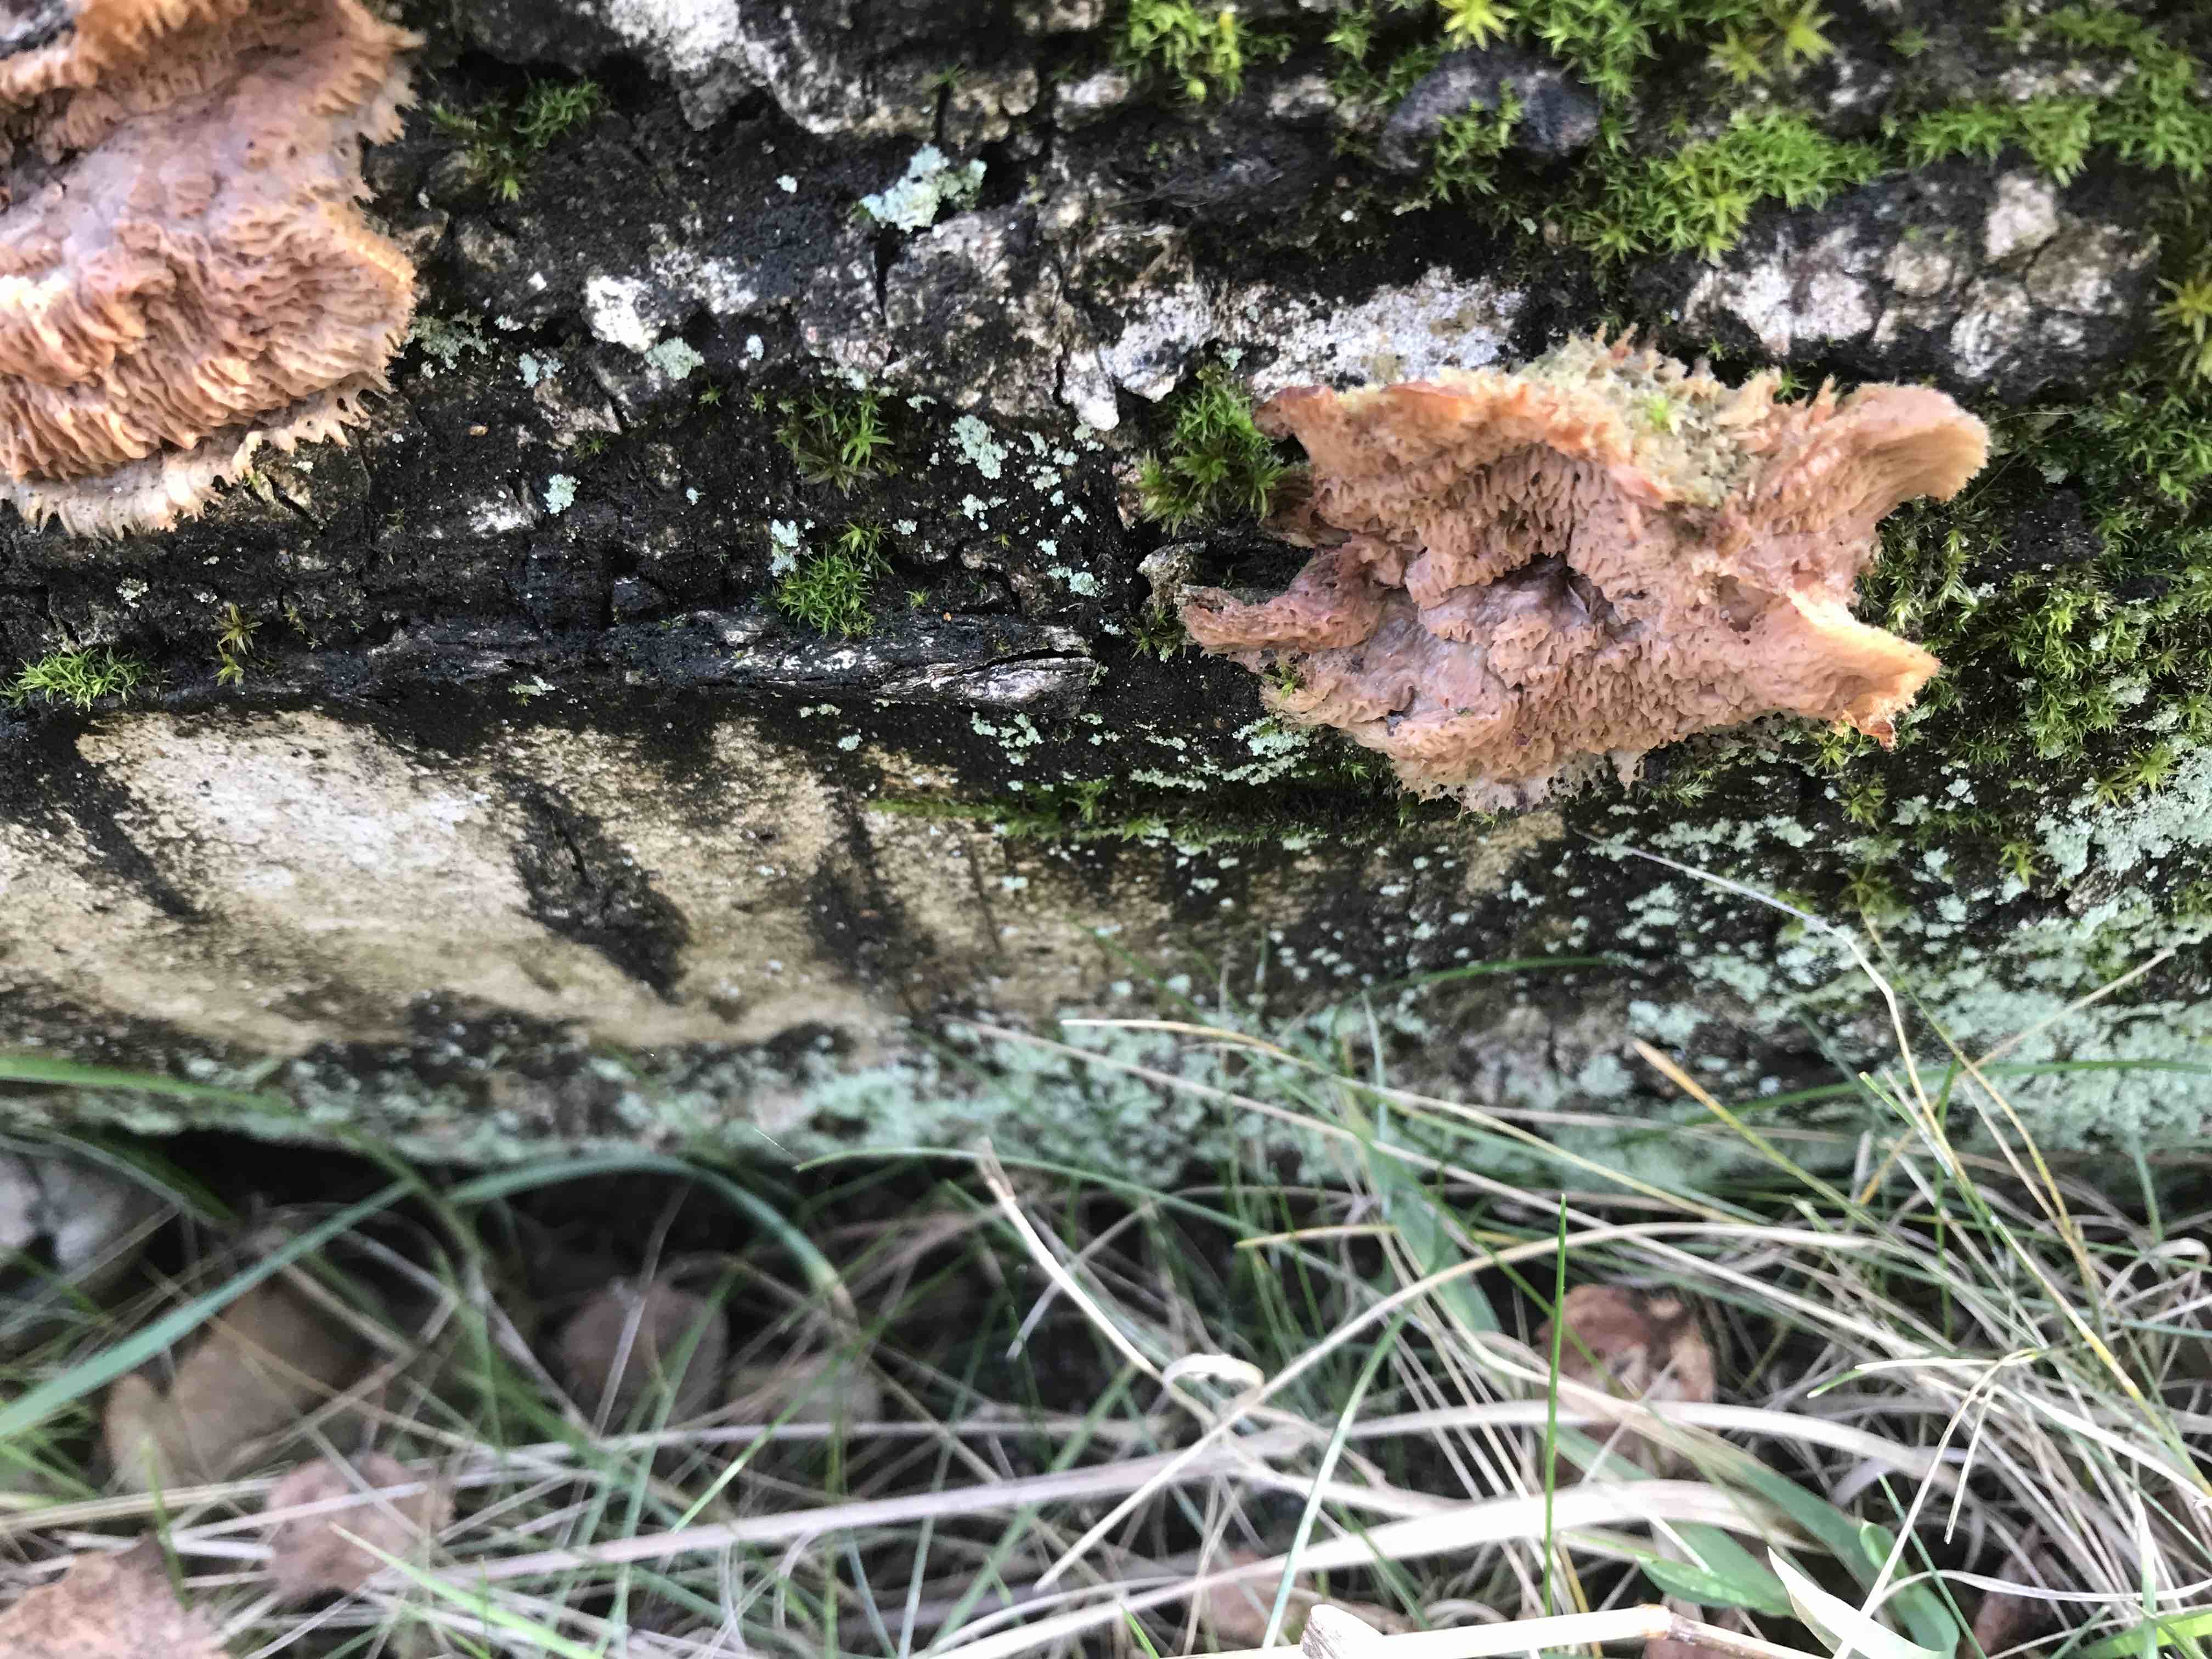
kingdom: Fungi
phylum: Basidiomycota
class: Agaricomycetes
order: Polyporales
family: Meruliaceae
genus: Phlebia
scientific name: Phlebia tremellosa
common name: bævrende åresvamp
